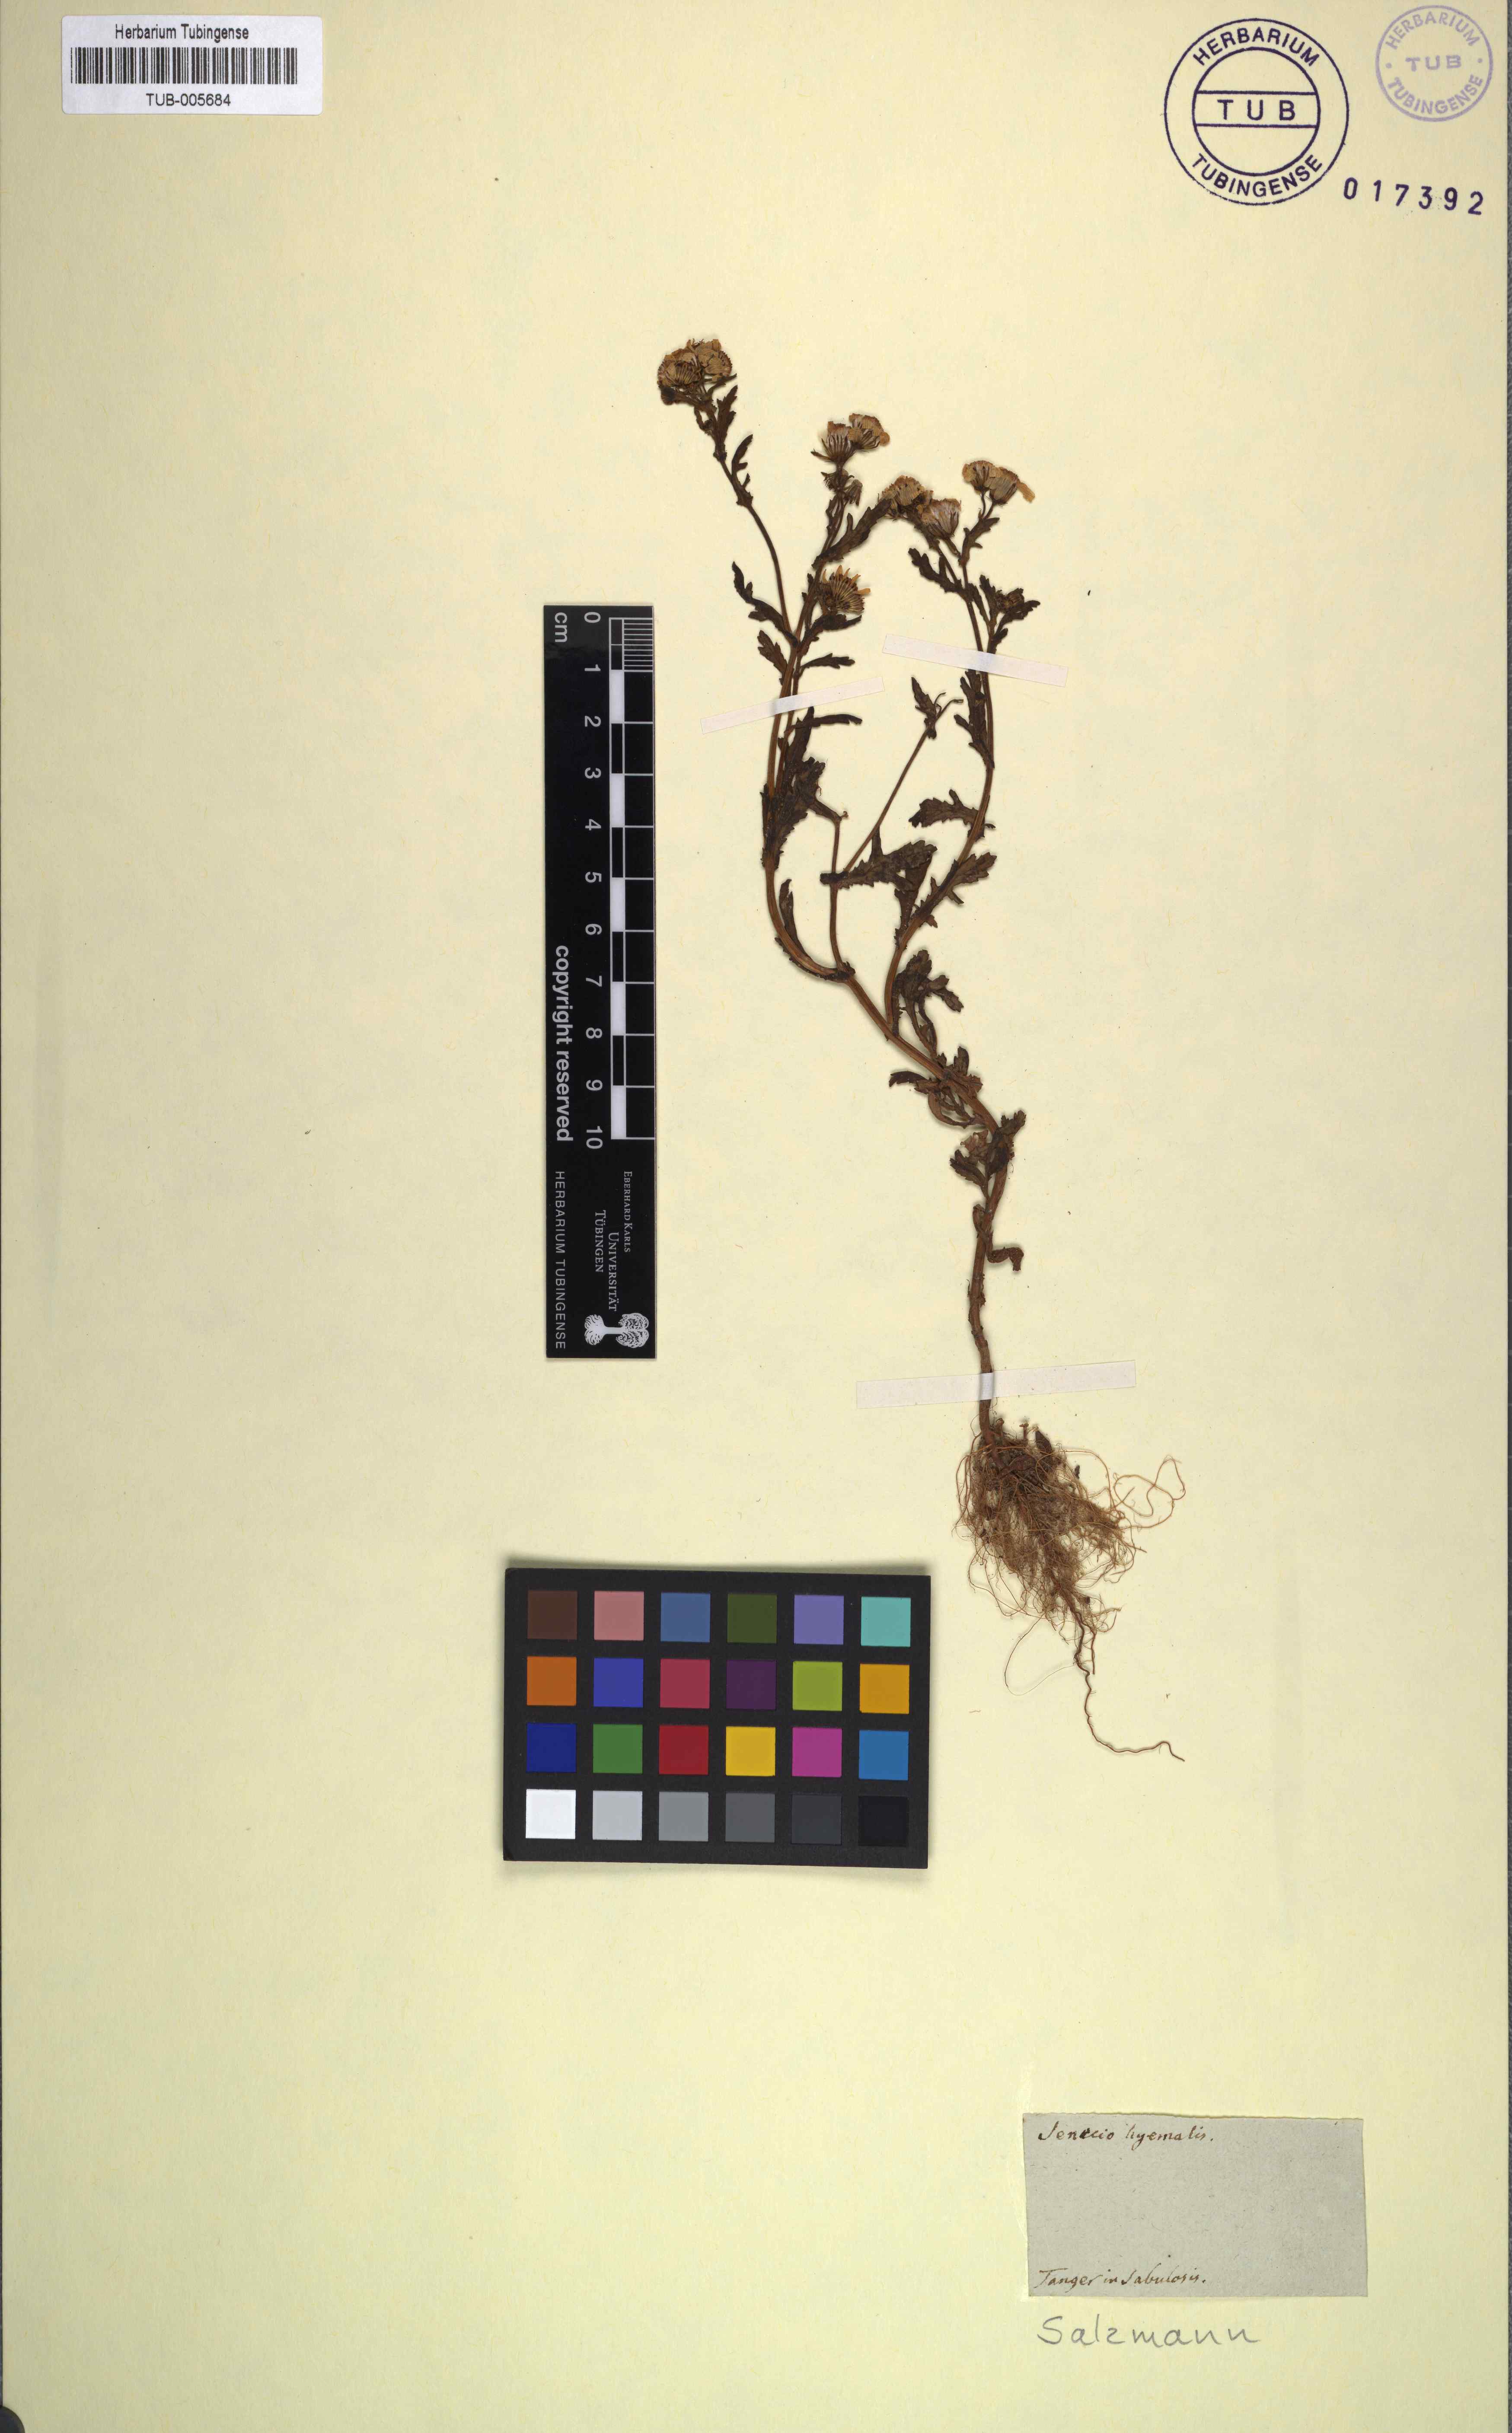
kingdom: Plantae
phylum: Tracheophyta
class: Magnoliopsida
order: Asterales
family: Asteraceae
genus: Senecio
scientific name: Senecio leucanthemifolius
